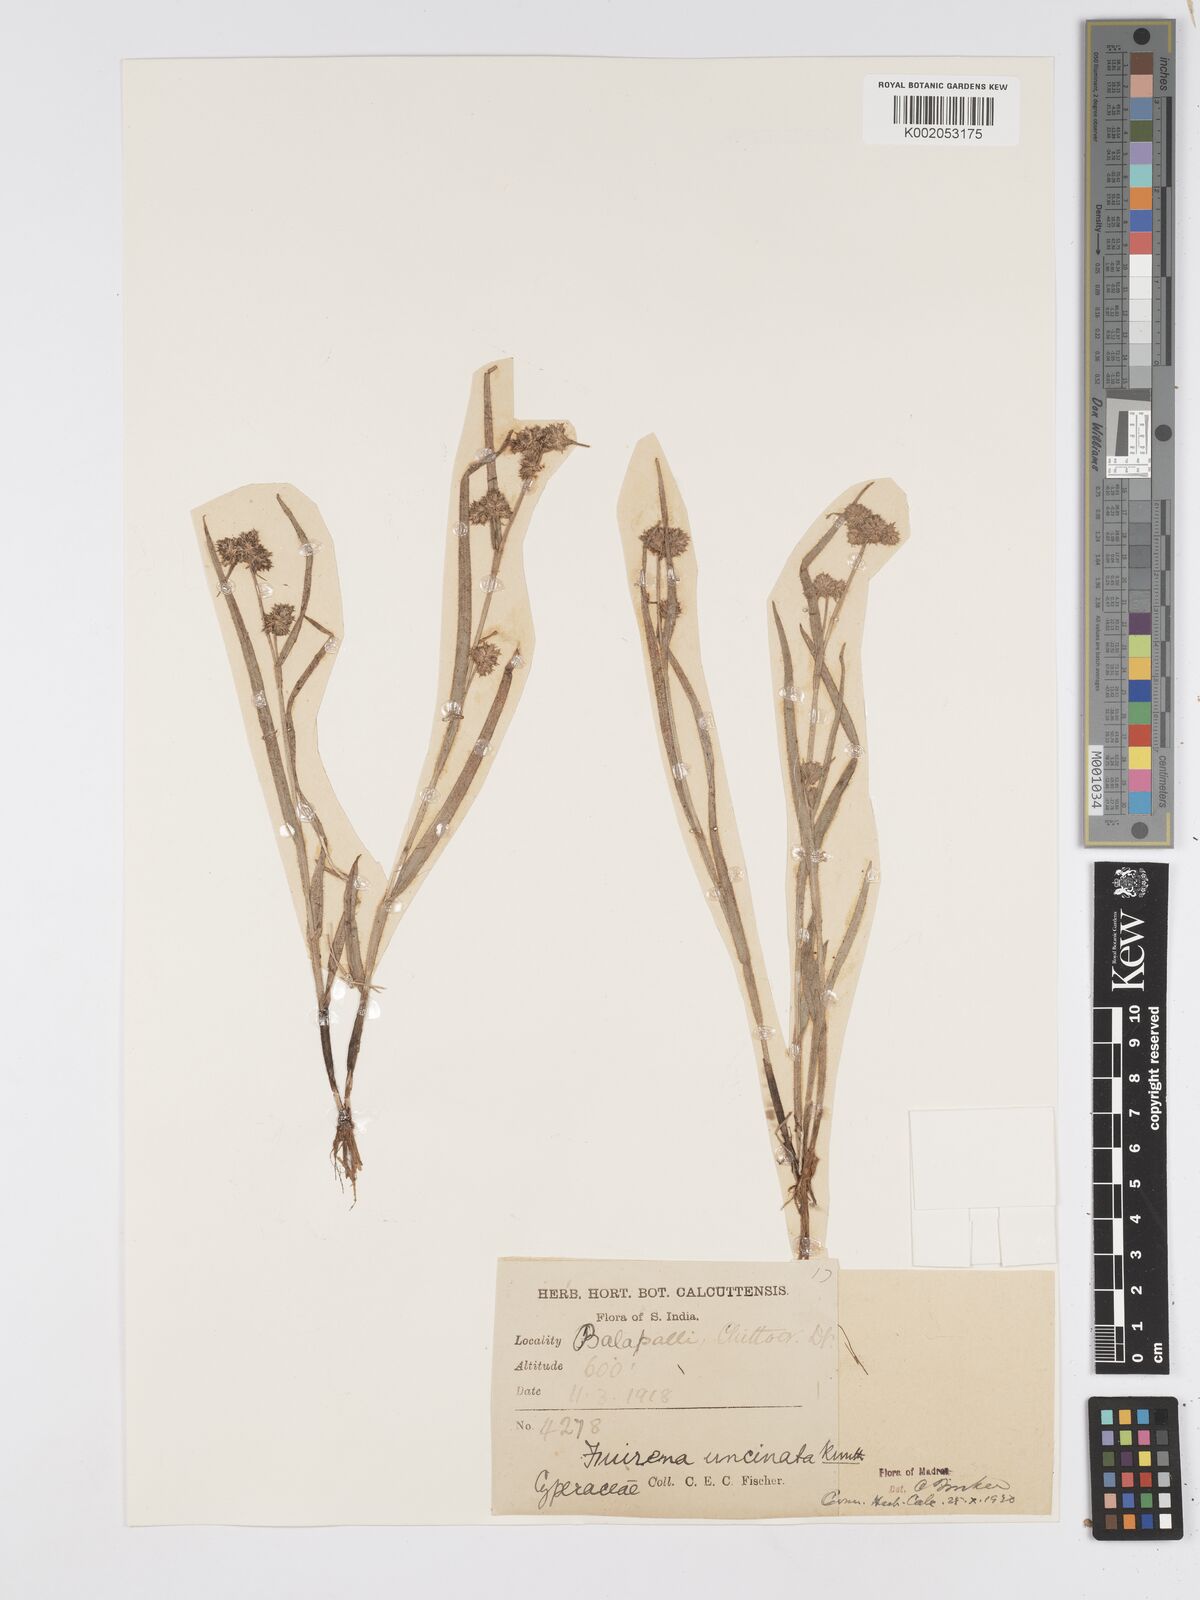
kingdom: Plantae
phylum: Tracheophyta
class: Liliopsida
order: Poales
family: Cyperaceae
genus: Fuirena
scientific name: Fuirena uncinata
